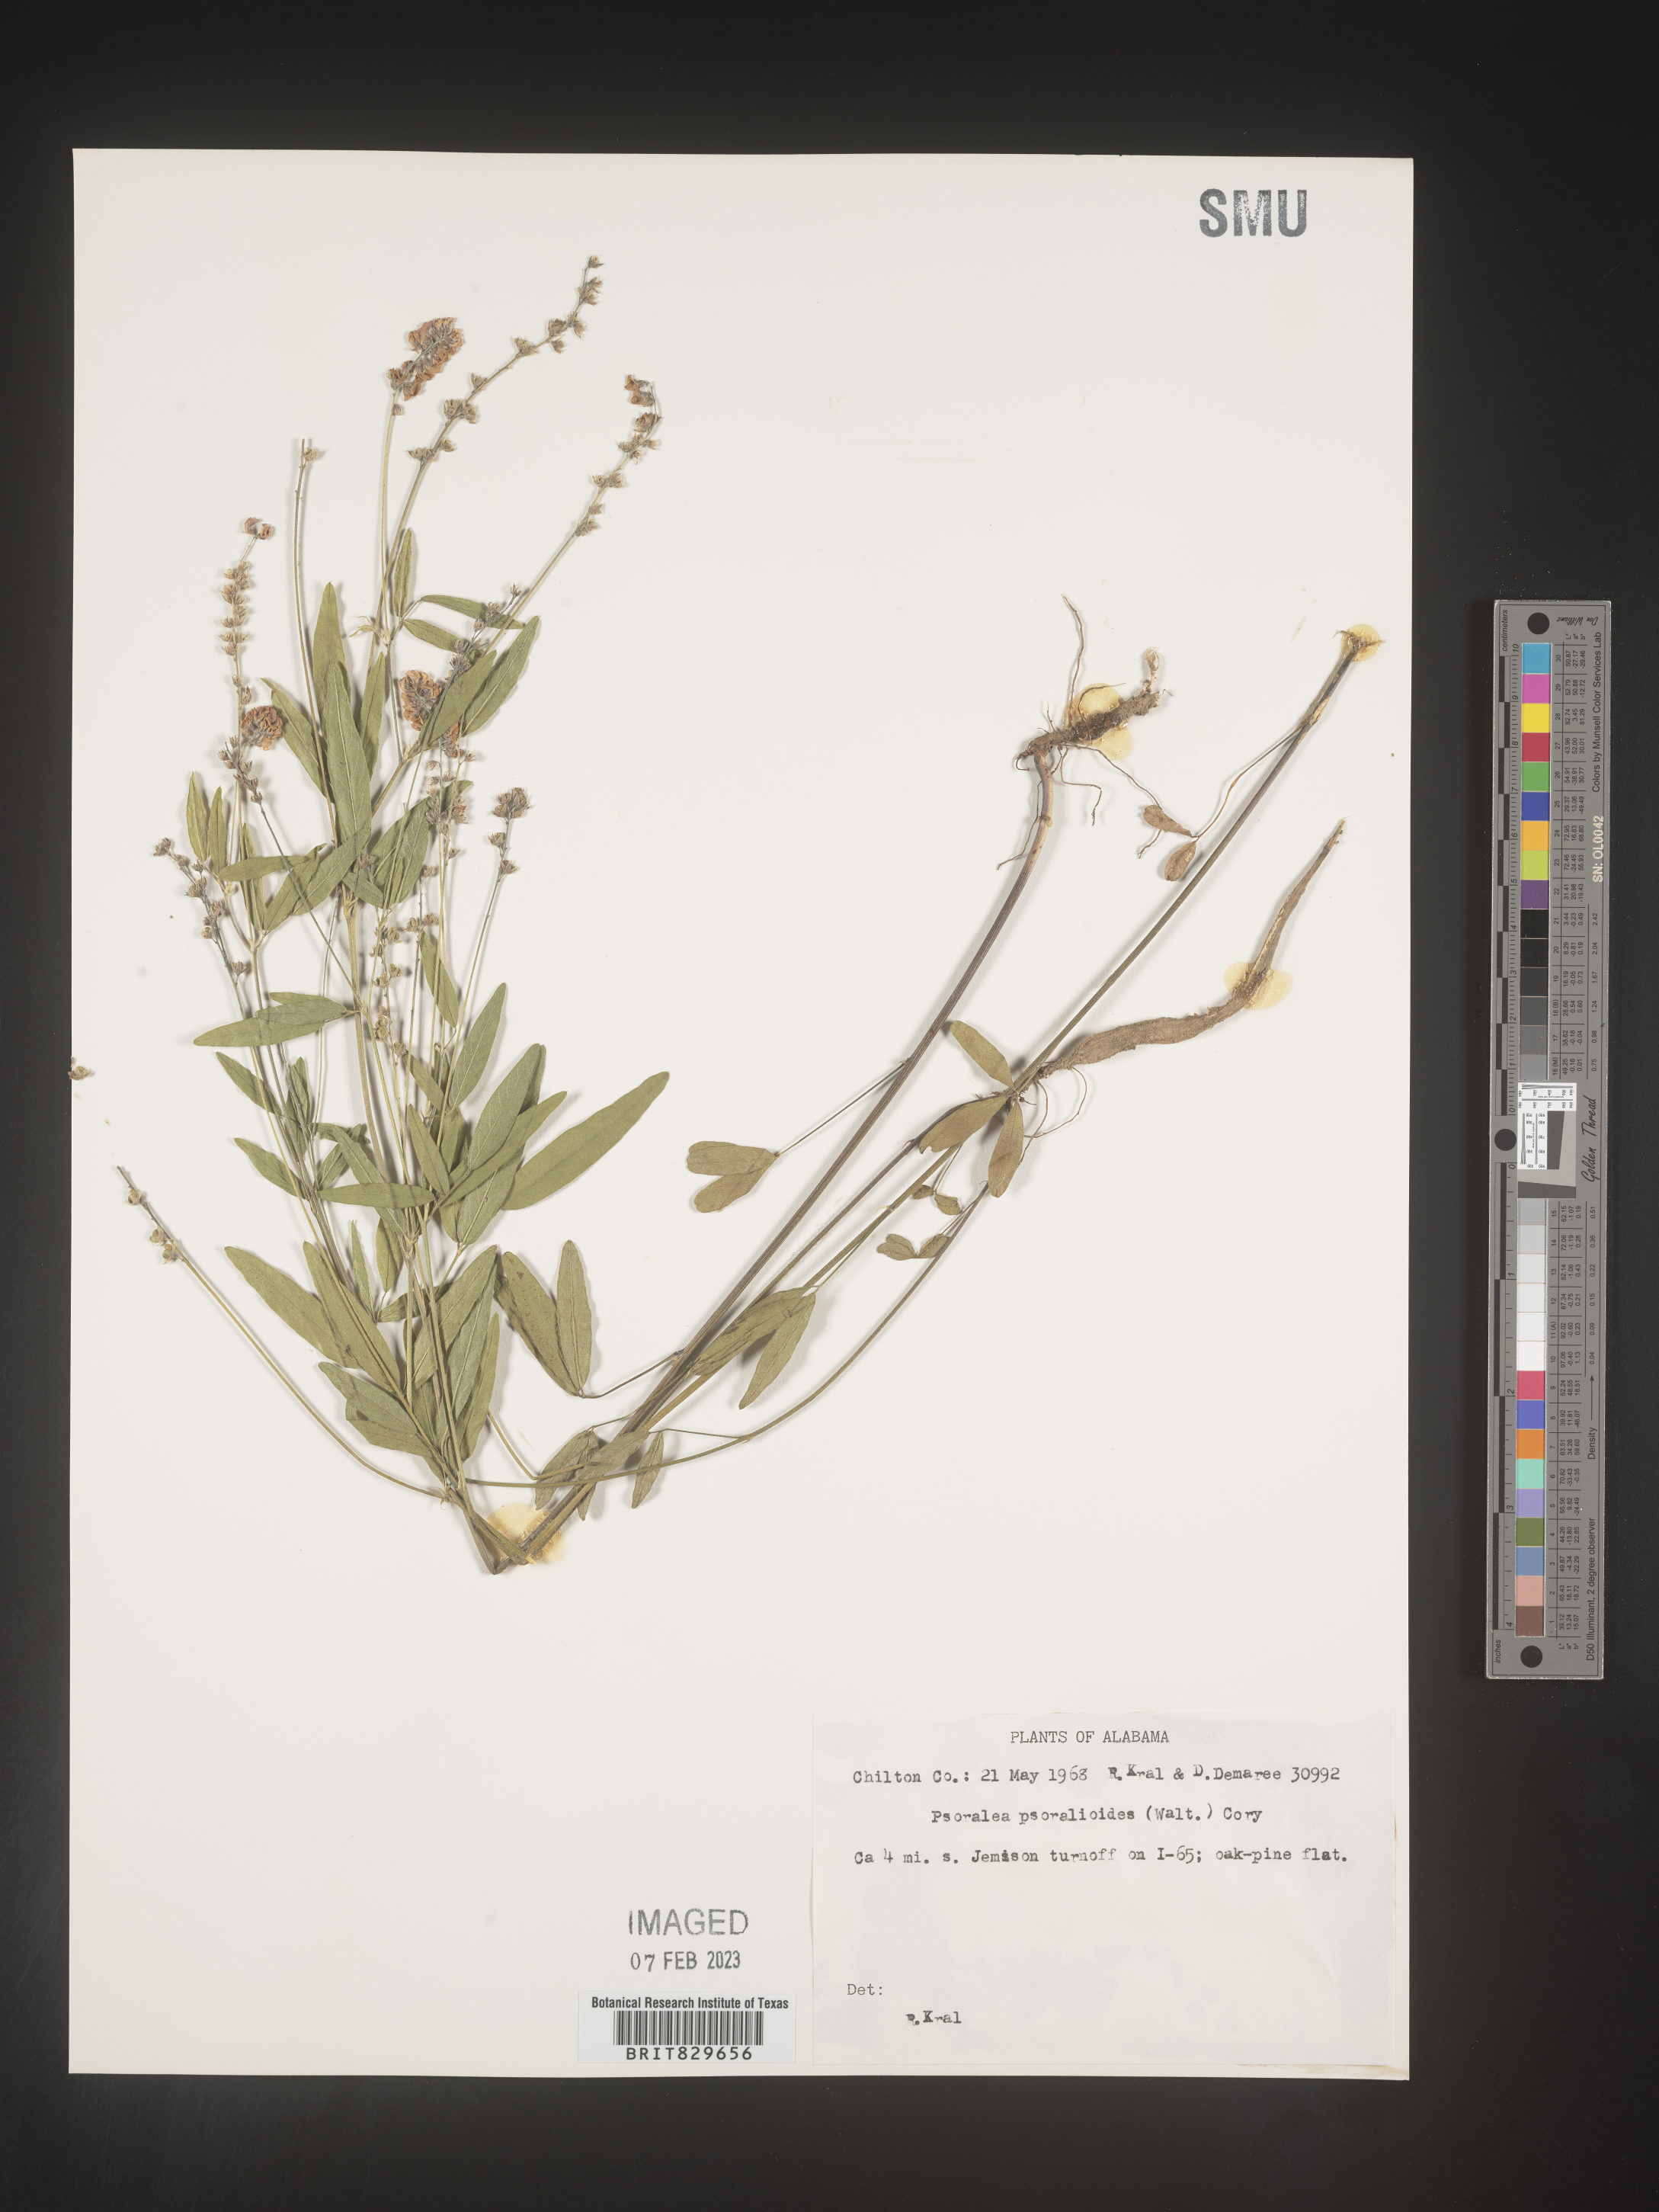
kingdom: Plantae
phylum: Tracheophyta
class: Magnoliopsida
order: Fabales
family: Fabaceae
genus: Orbexilum
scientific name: Orbexilum psoralioides
